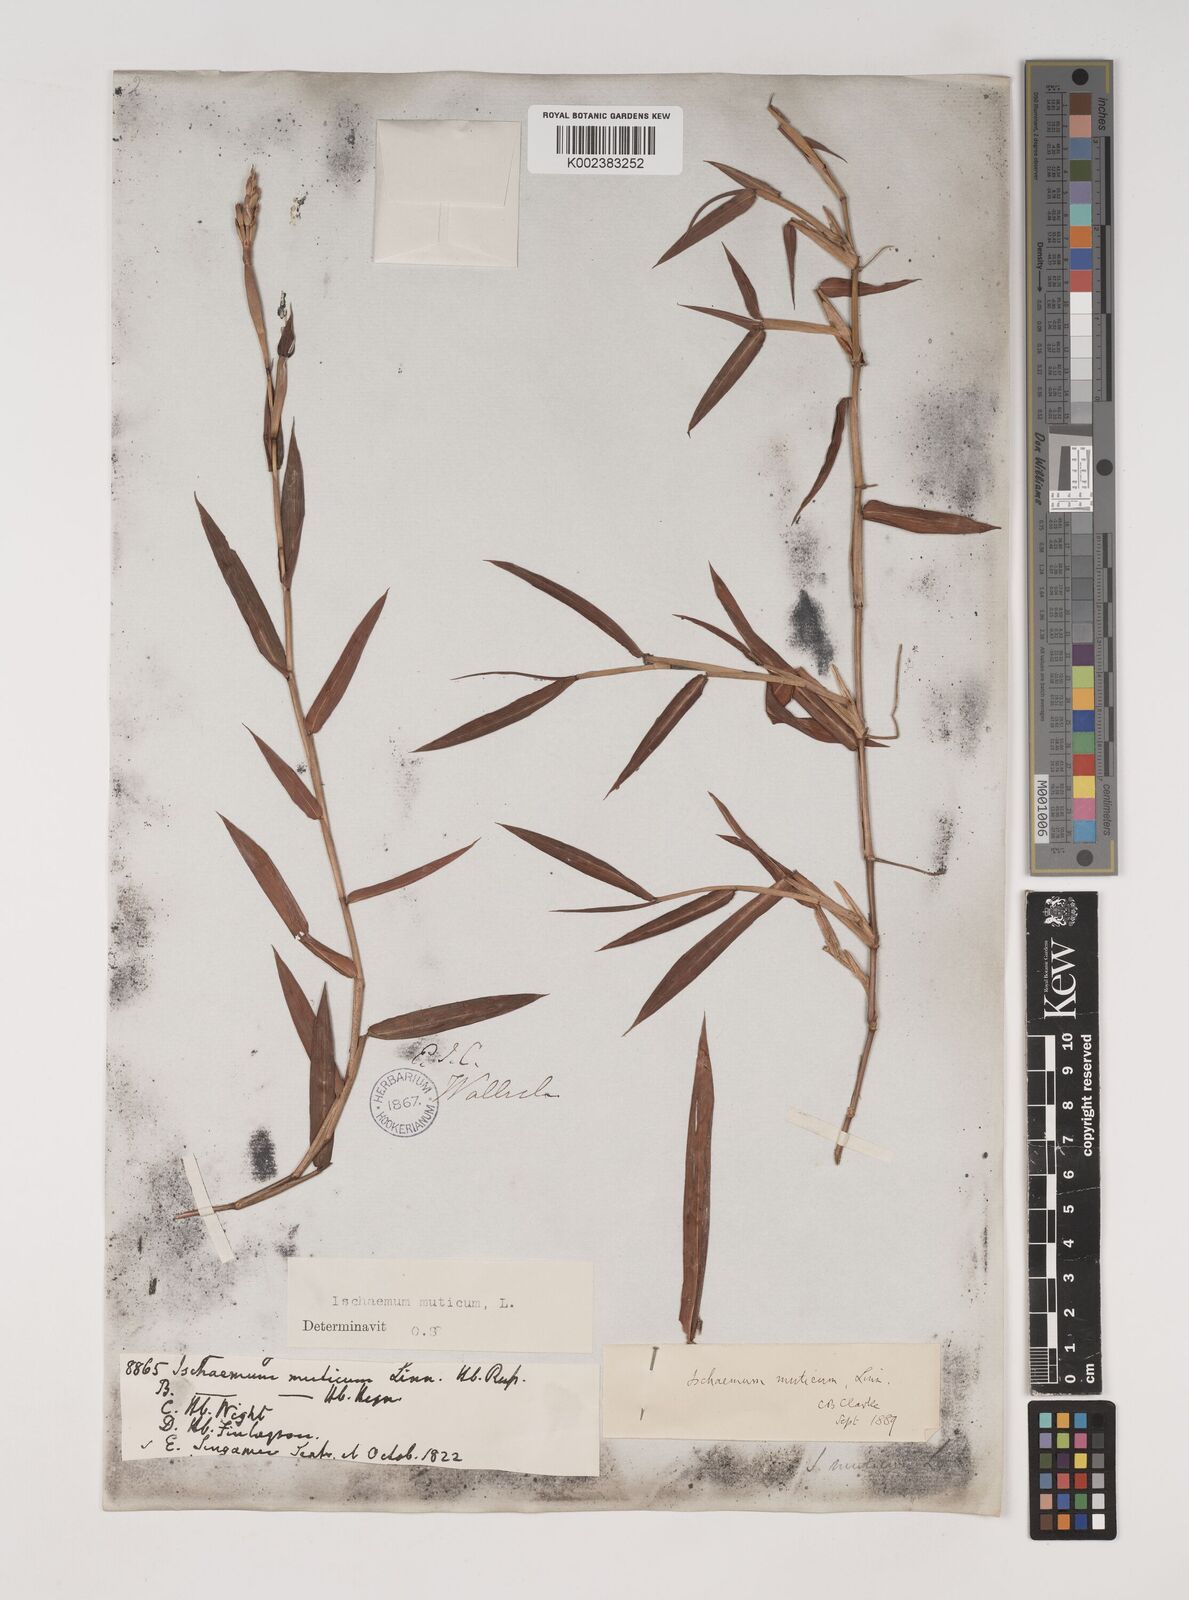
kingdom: Plantae
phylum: Tracheophyta
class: Liliopsida
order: Poales
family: Poaceae
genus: Ischaemum
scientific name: Ischaemum muticum
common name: Drought grass
